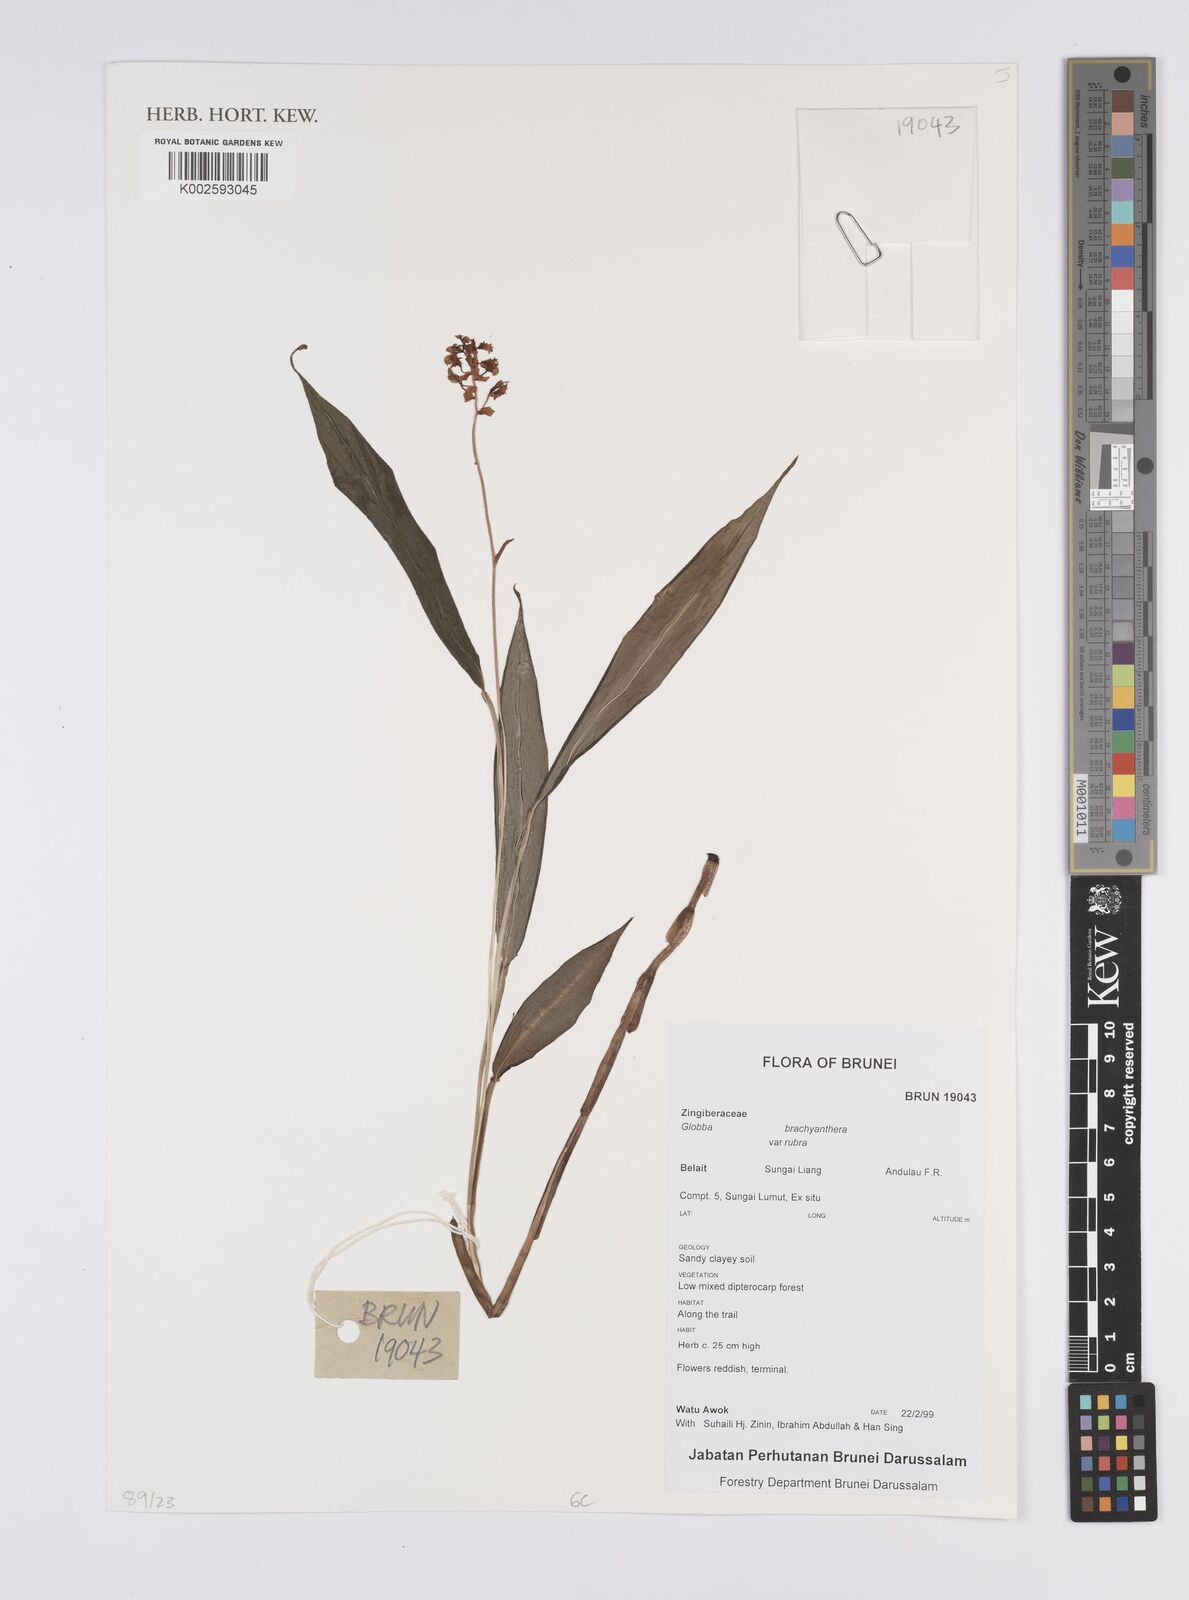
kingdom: Plantae
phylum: Tracheophyta
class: Liliopsida
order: Zingiberales
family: Zingiberaceae
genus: Globba
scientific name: Globba brachyanthera
